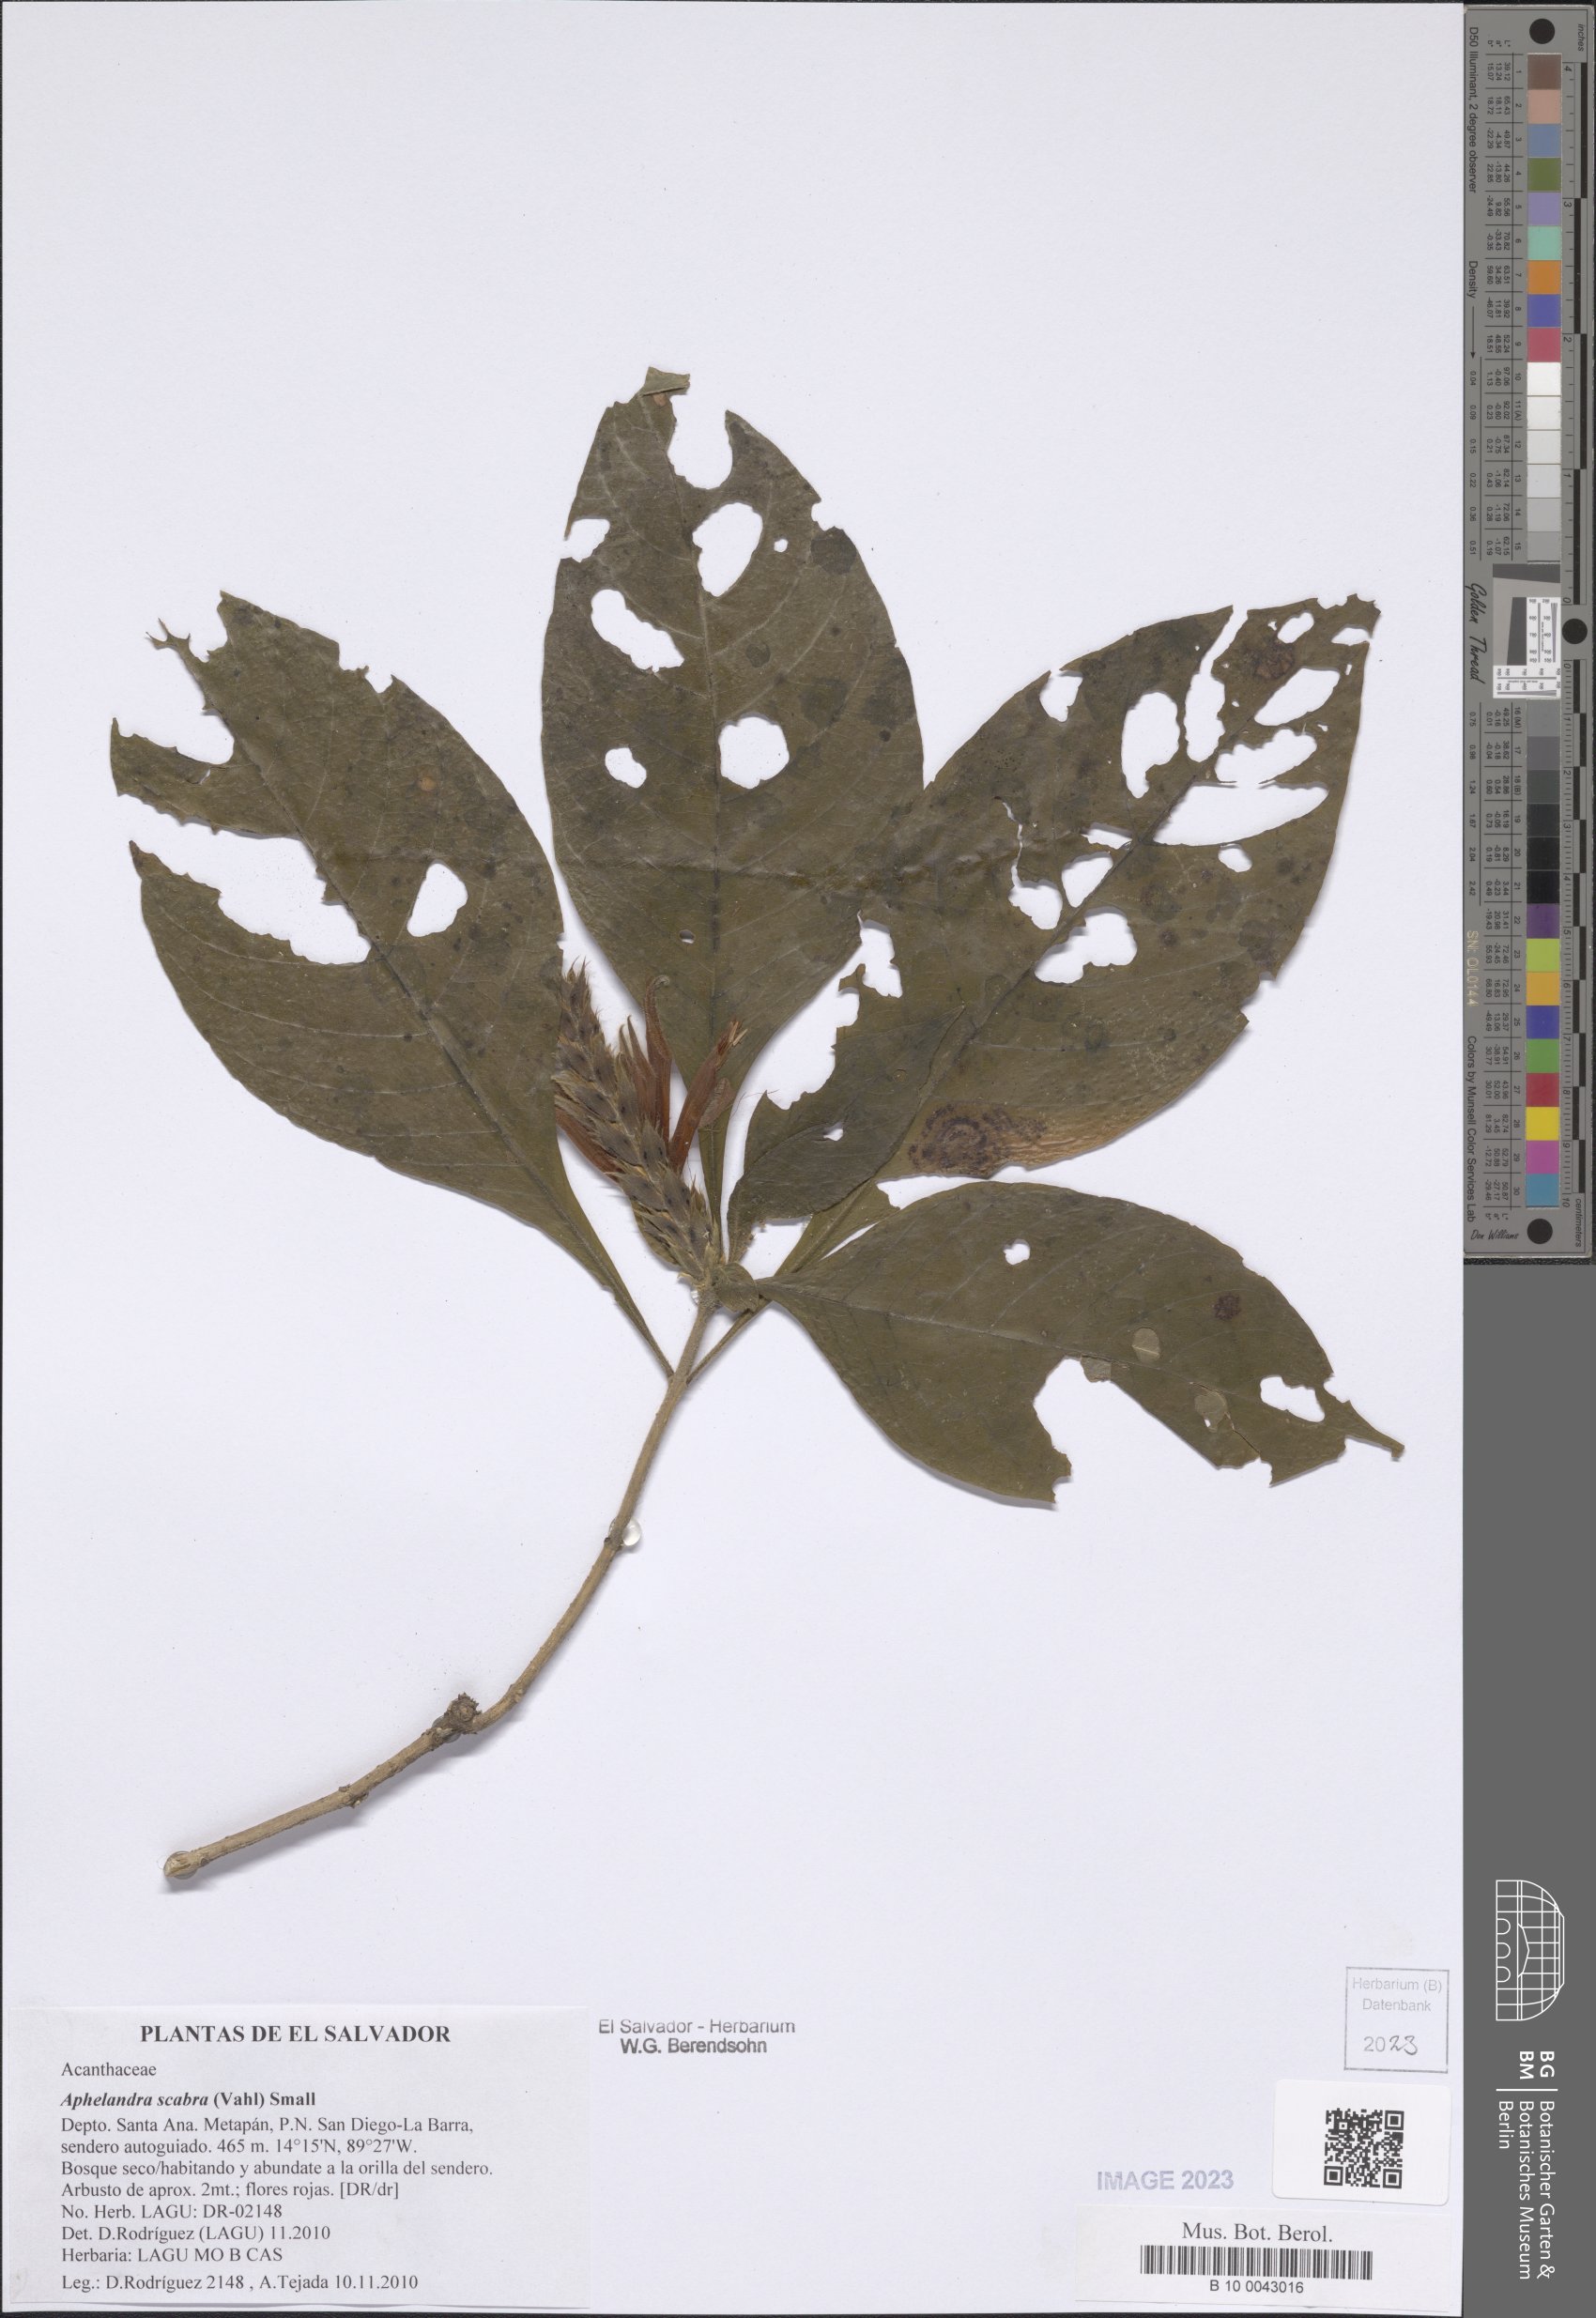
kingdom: Plantae
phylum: Tracheophyta
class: Magnoliopsida
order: Lamiales
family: Acanthaceae
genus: Aphelandra
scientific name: Aphelandra scabra
